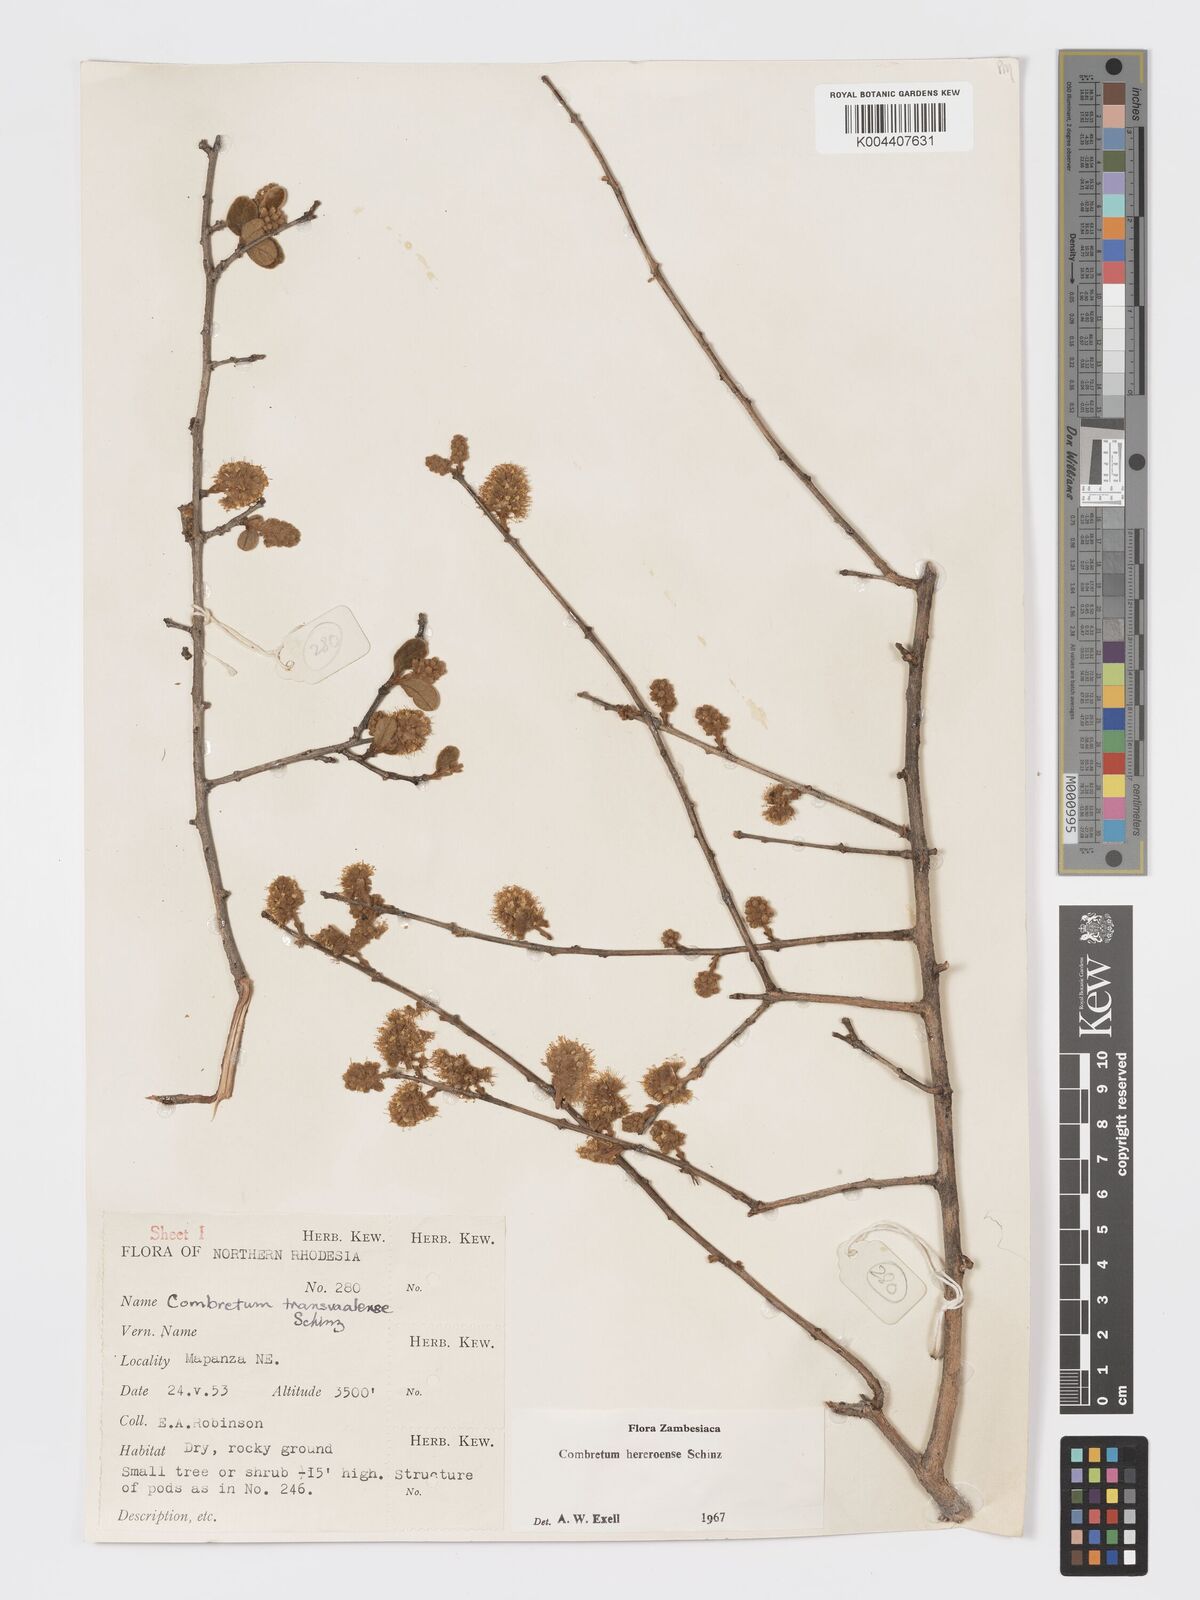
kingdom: Plantae
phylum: Tracheophyta
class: Magnoliopsida
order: Myrtales
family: Combretaceae
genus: Combretum
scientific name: Combretum hereroense
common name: Russet bushwillow
